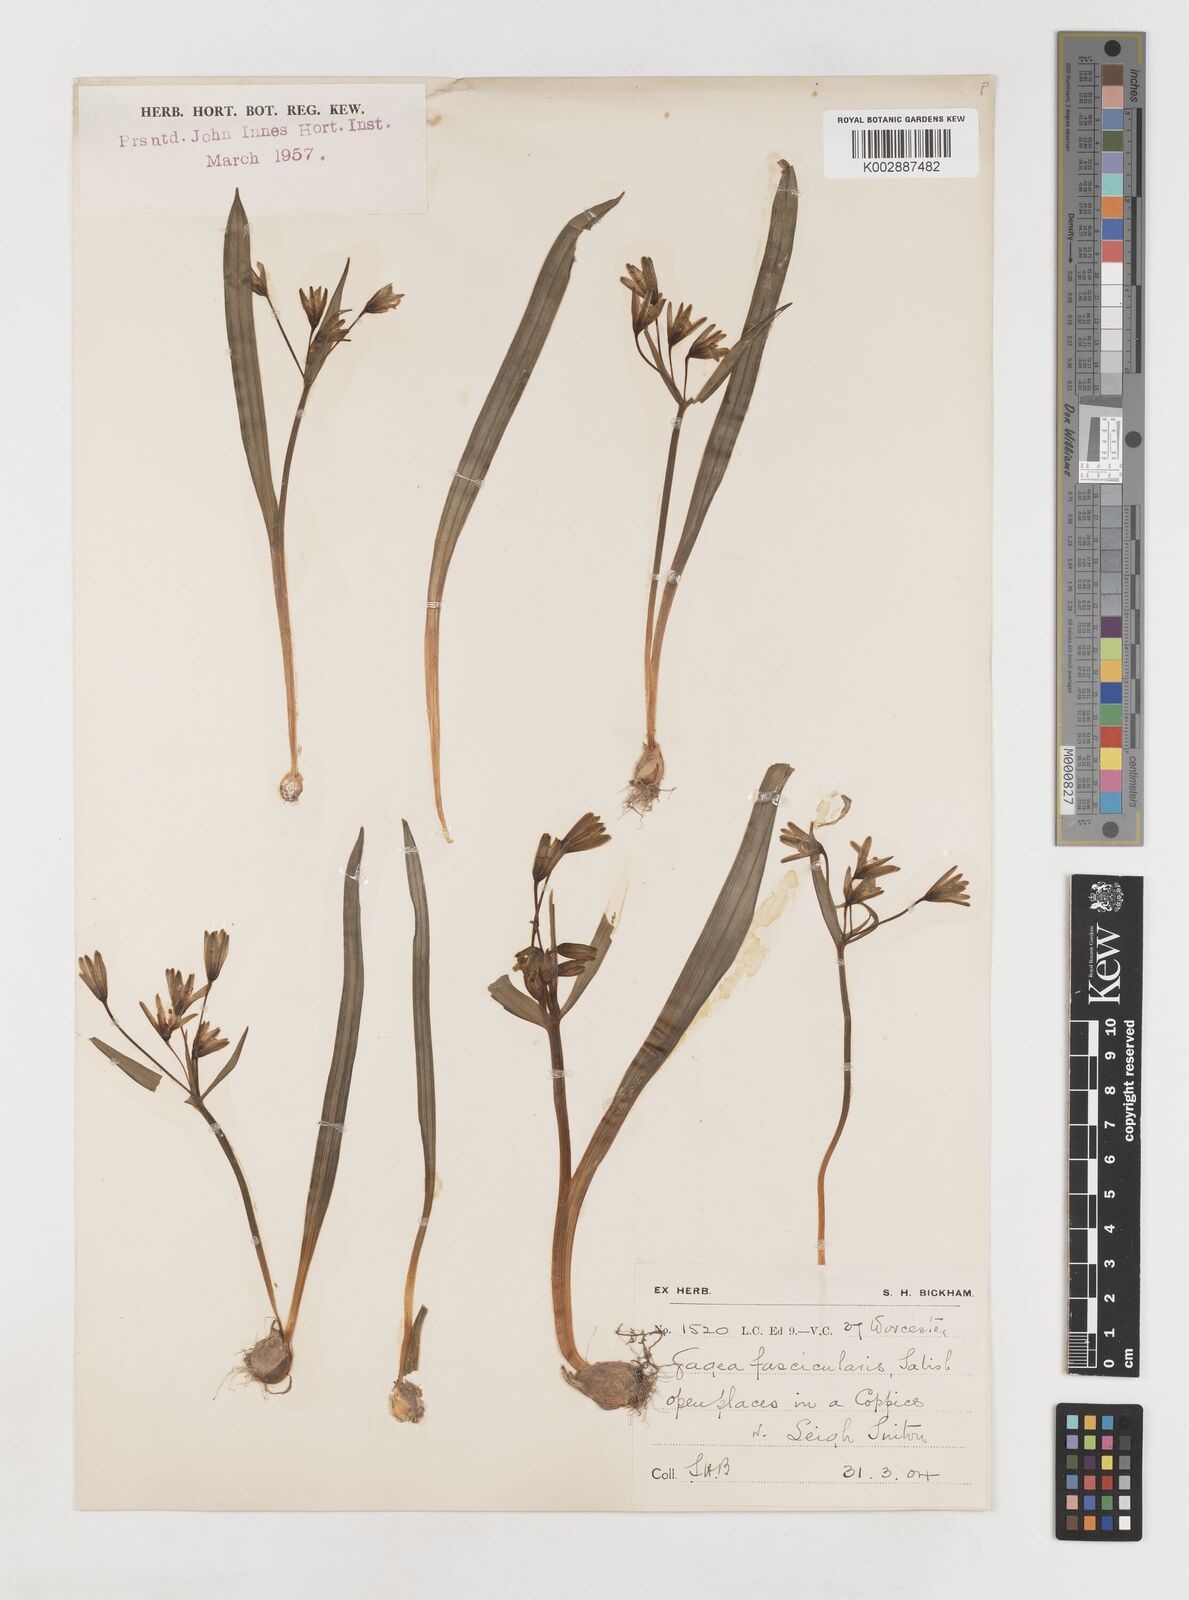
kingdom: Plantae
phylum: Tracheophyta
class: Liliopsida
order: Liliales
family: Liliaceae
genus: Gagea
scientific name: Gagea lutea
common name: Yellow star-of-bethlehem
